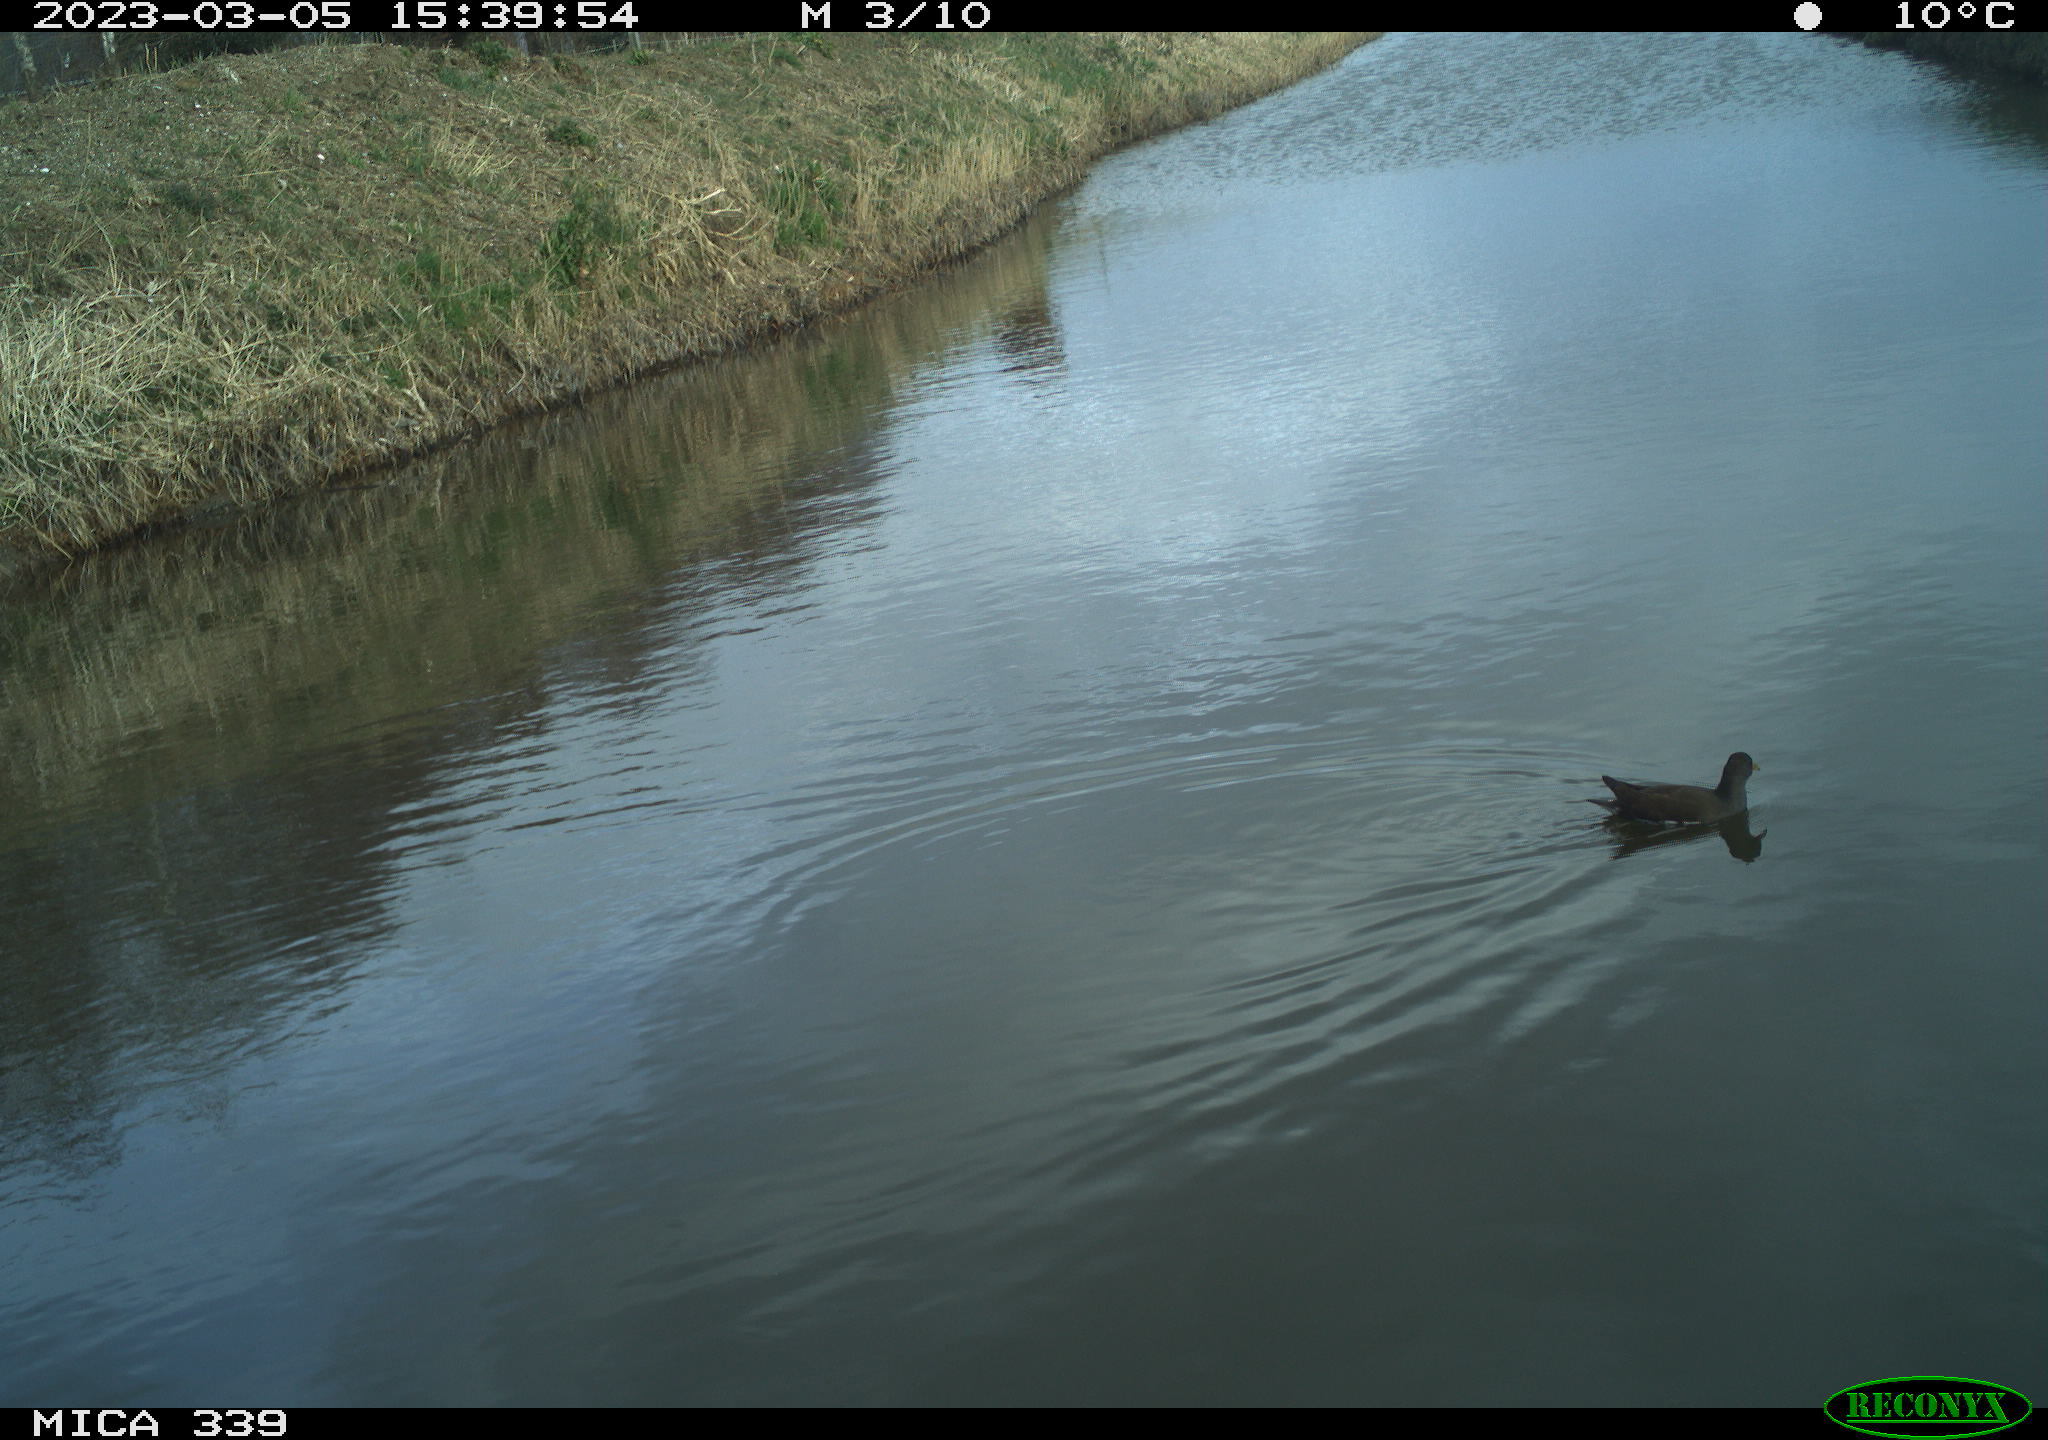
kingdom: Animalia
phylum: Chordata
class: Aves
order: Gruiformes
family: Rallidae
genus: Gallinula
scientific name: Gallinula chloropus
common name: Common moorhen
